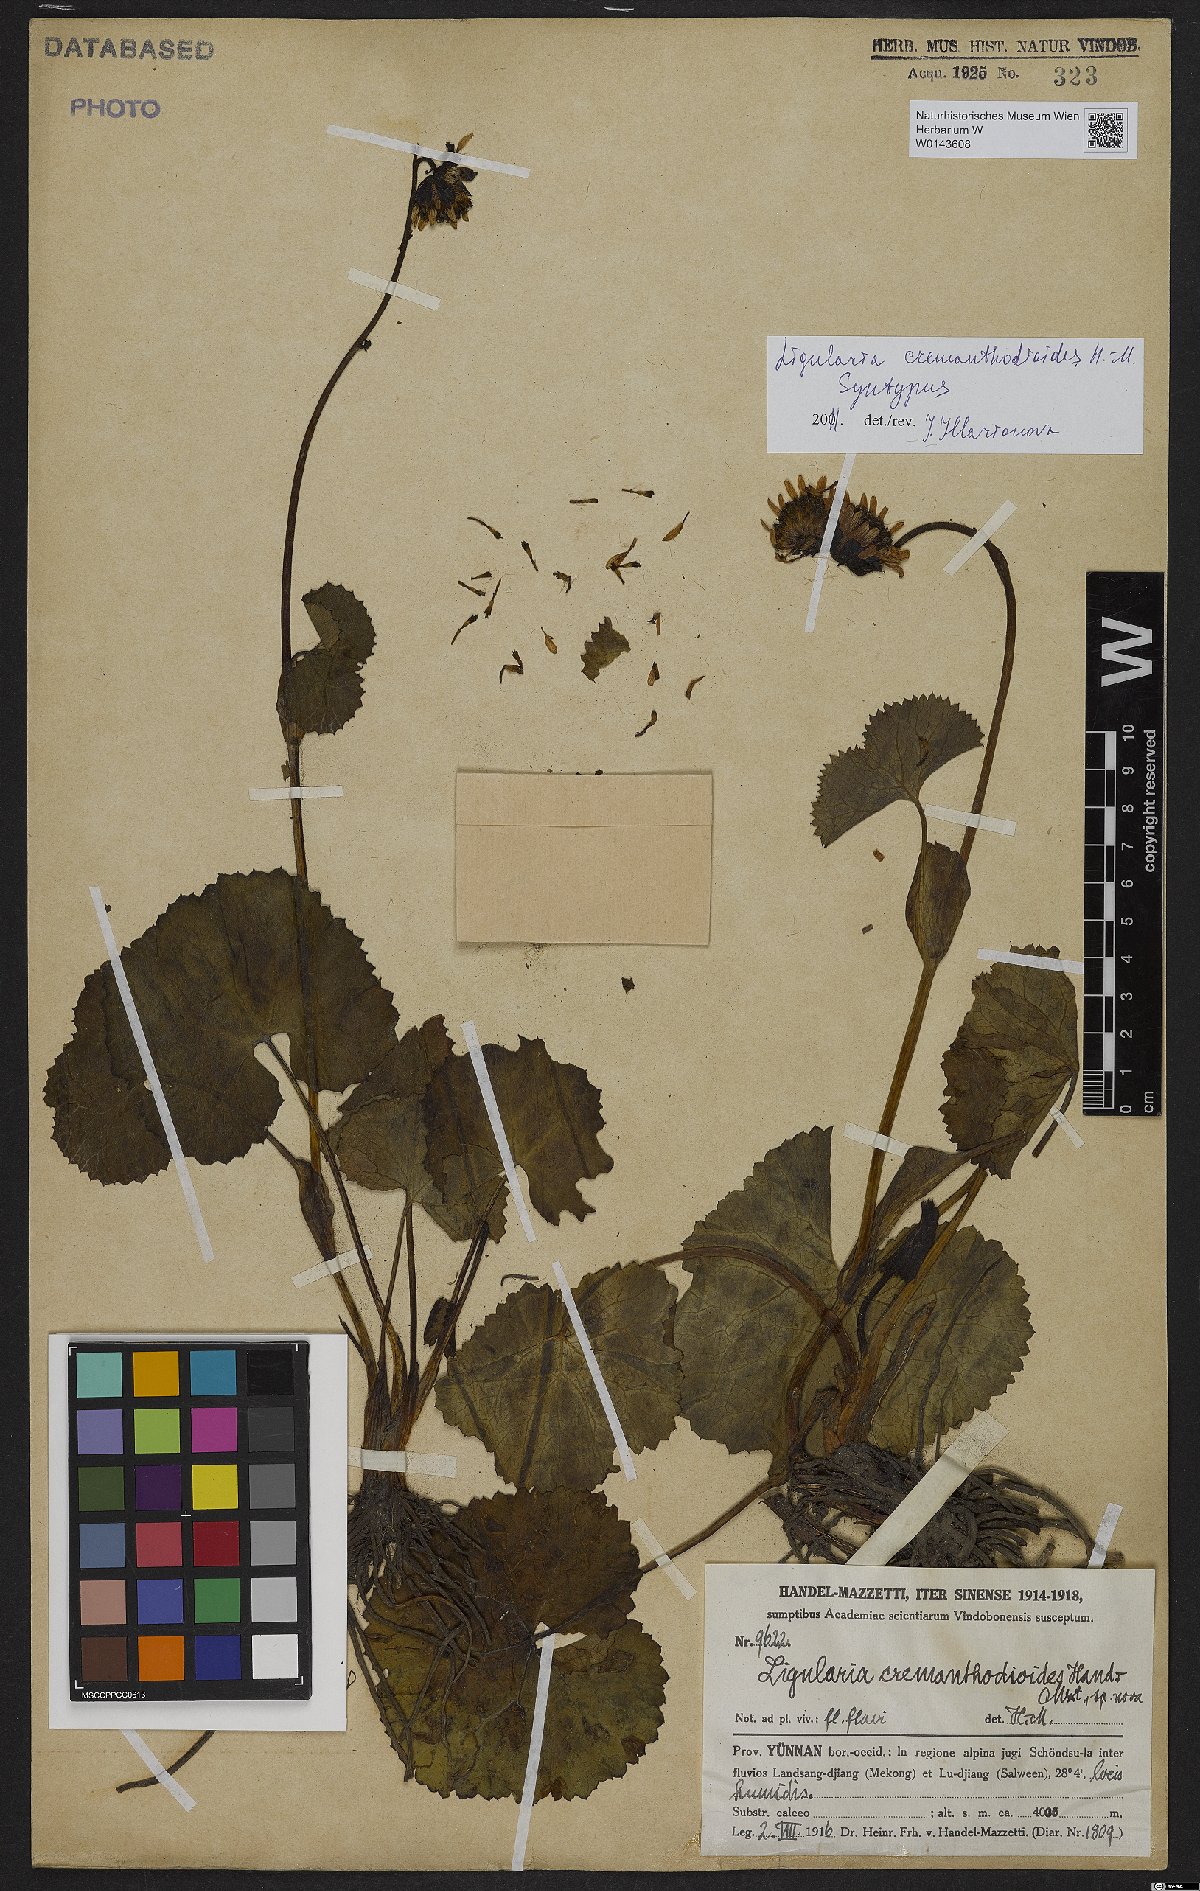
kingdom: Plantae
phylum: Tracheophyta
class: Magnoliopsida
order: Asterales
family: Asteraceae
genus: Ligularia
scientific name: Ligularia cremanthodioides
